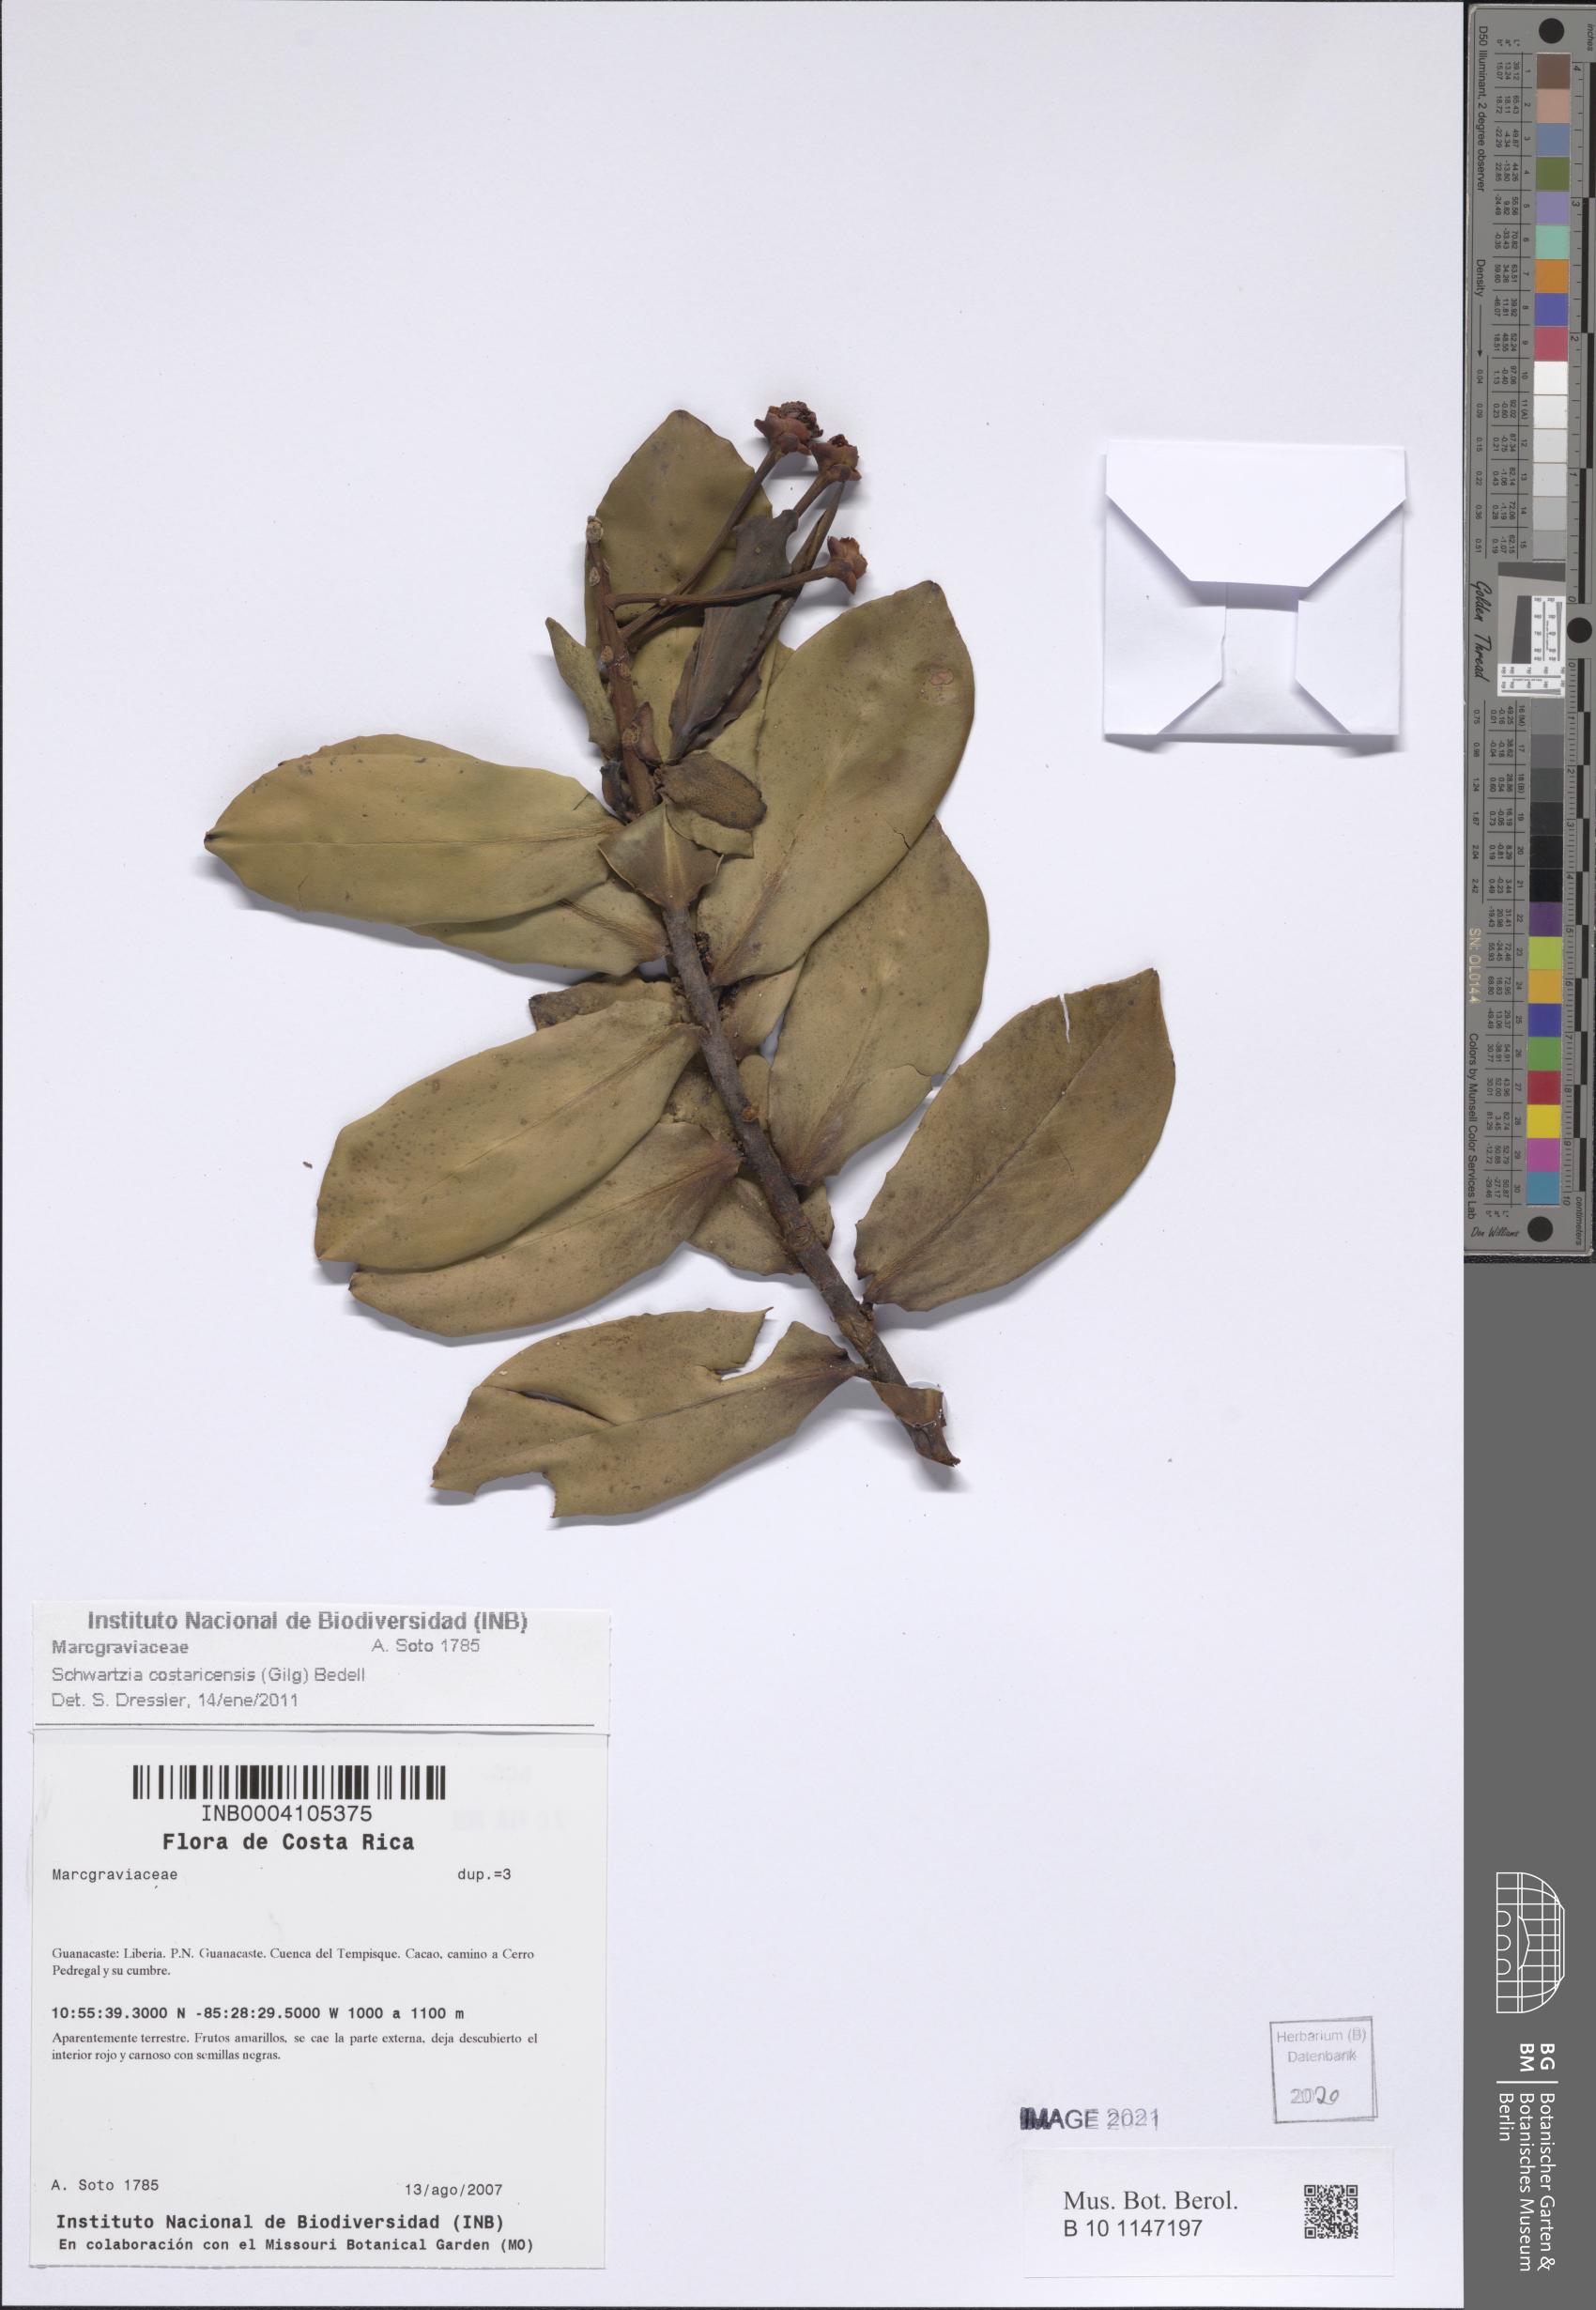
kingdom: Plantae
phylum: Tracheophyta
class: Magnoliopsida
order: Ericales
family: Marcgraviaceae
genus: Schwartzia
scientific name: Schwartzia costaricensis
